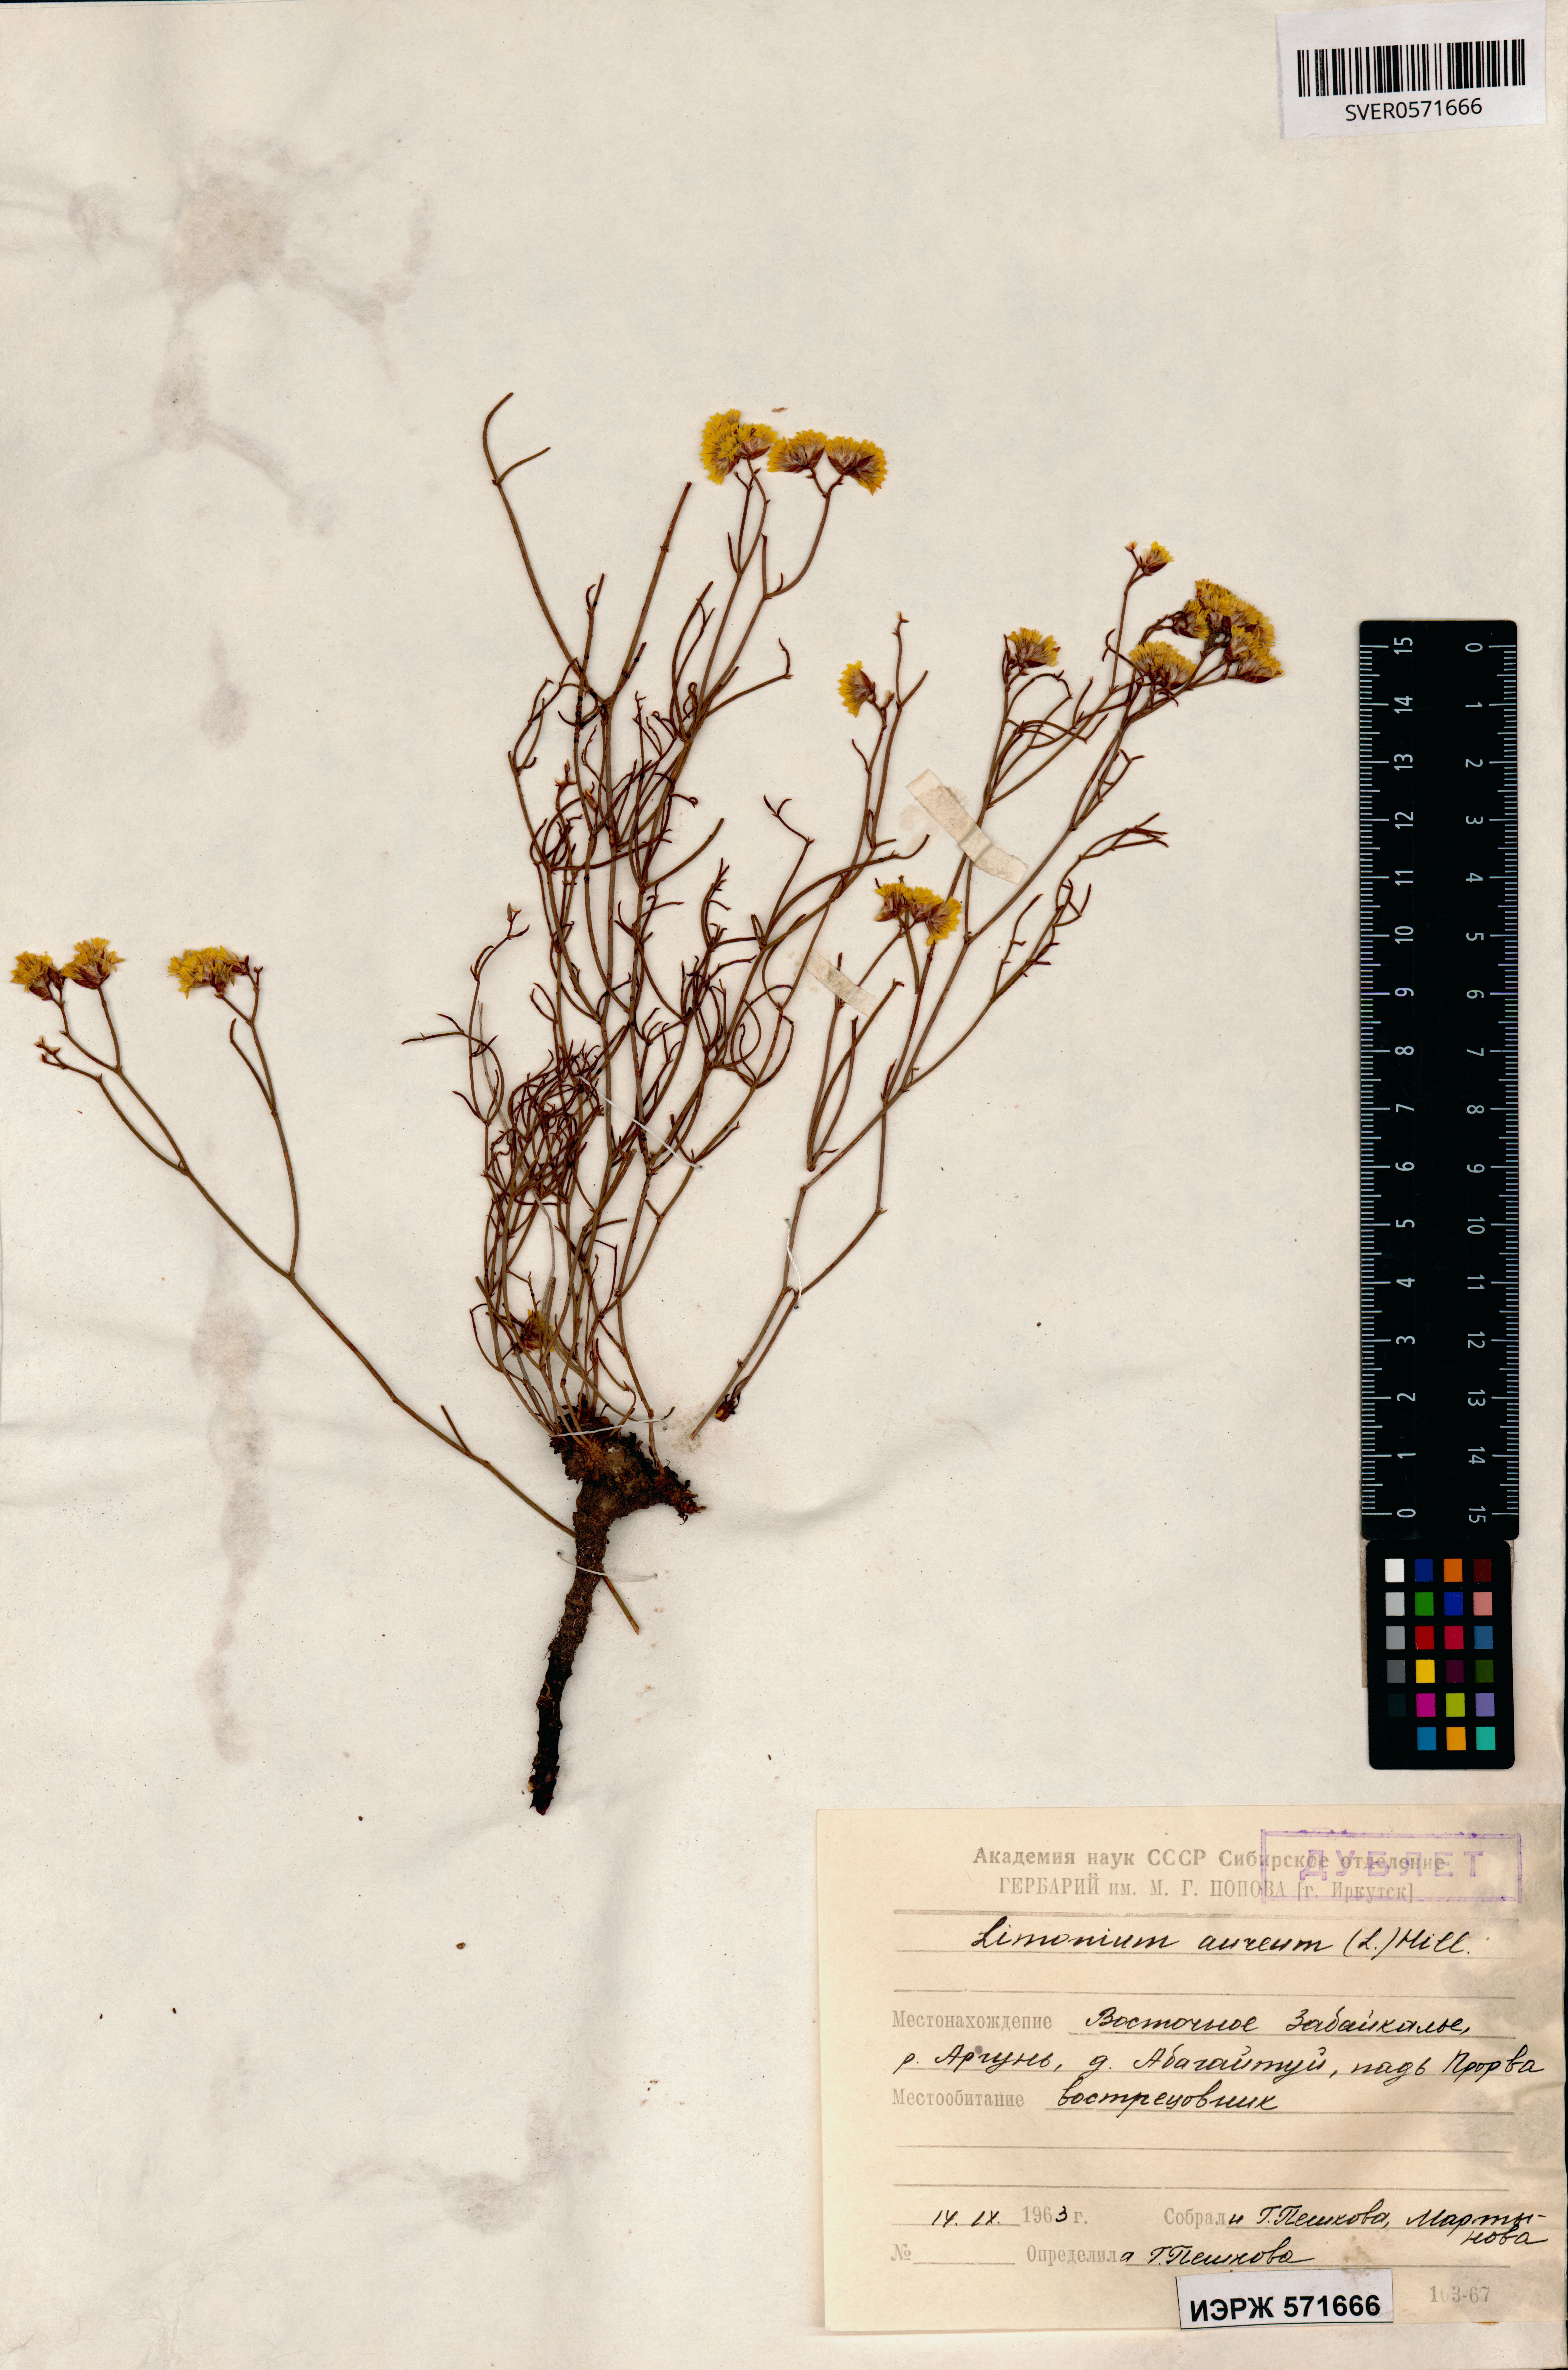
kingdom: Plantae
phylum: Tracheophyta
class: Magnoliopsida
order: Caryophyllales
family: Plumbaginaceae
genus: Limonium
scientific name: Limonium aureum
